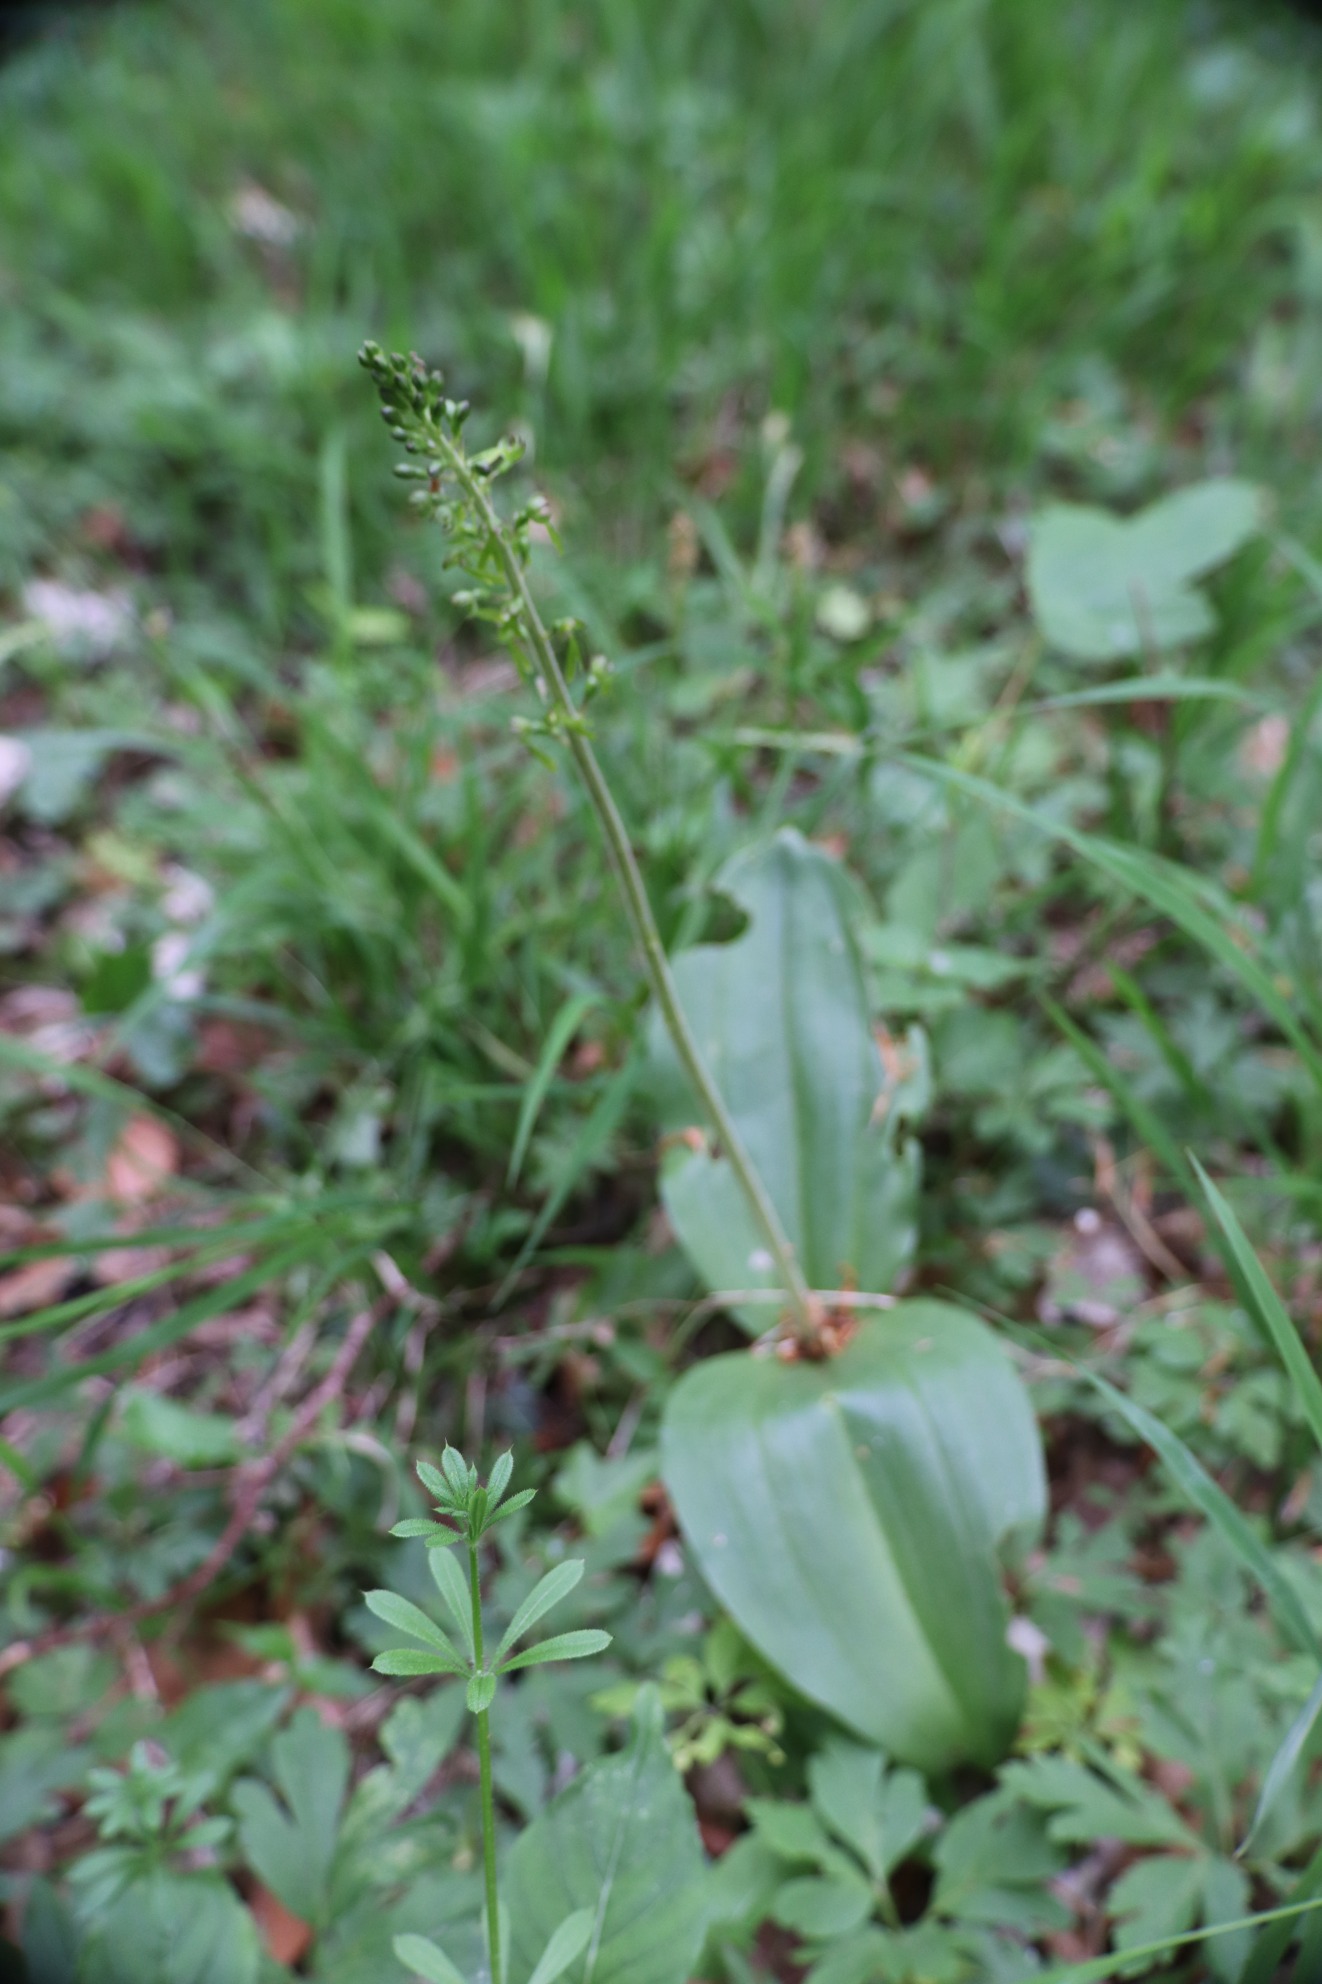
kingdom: Plantae
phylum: Tracheophyta
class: Liliopsida
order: Asparagales
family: Orchidaceae
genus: Neottia
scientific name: Neottia ovata
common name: Ægbladet fliglæbe
